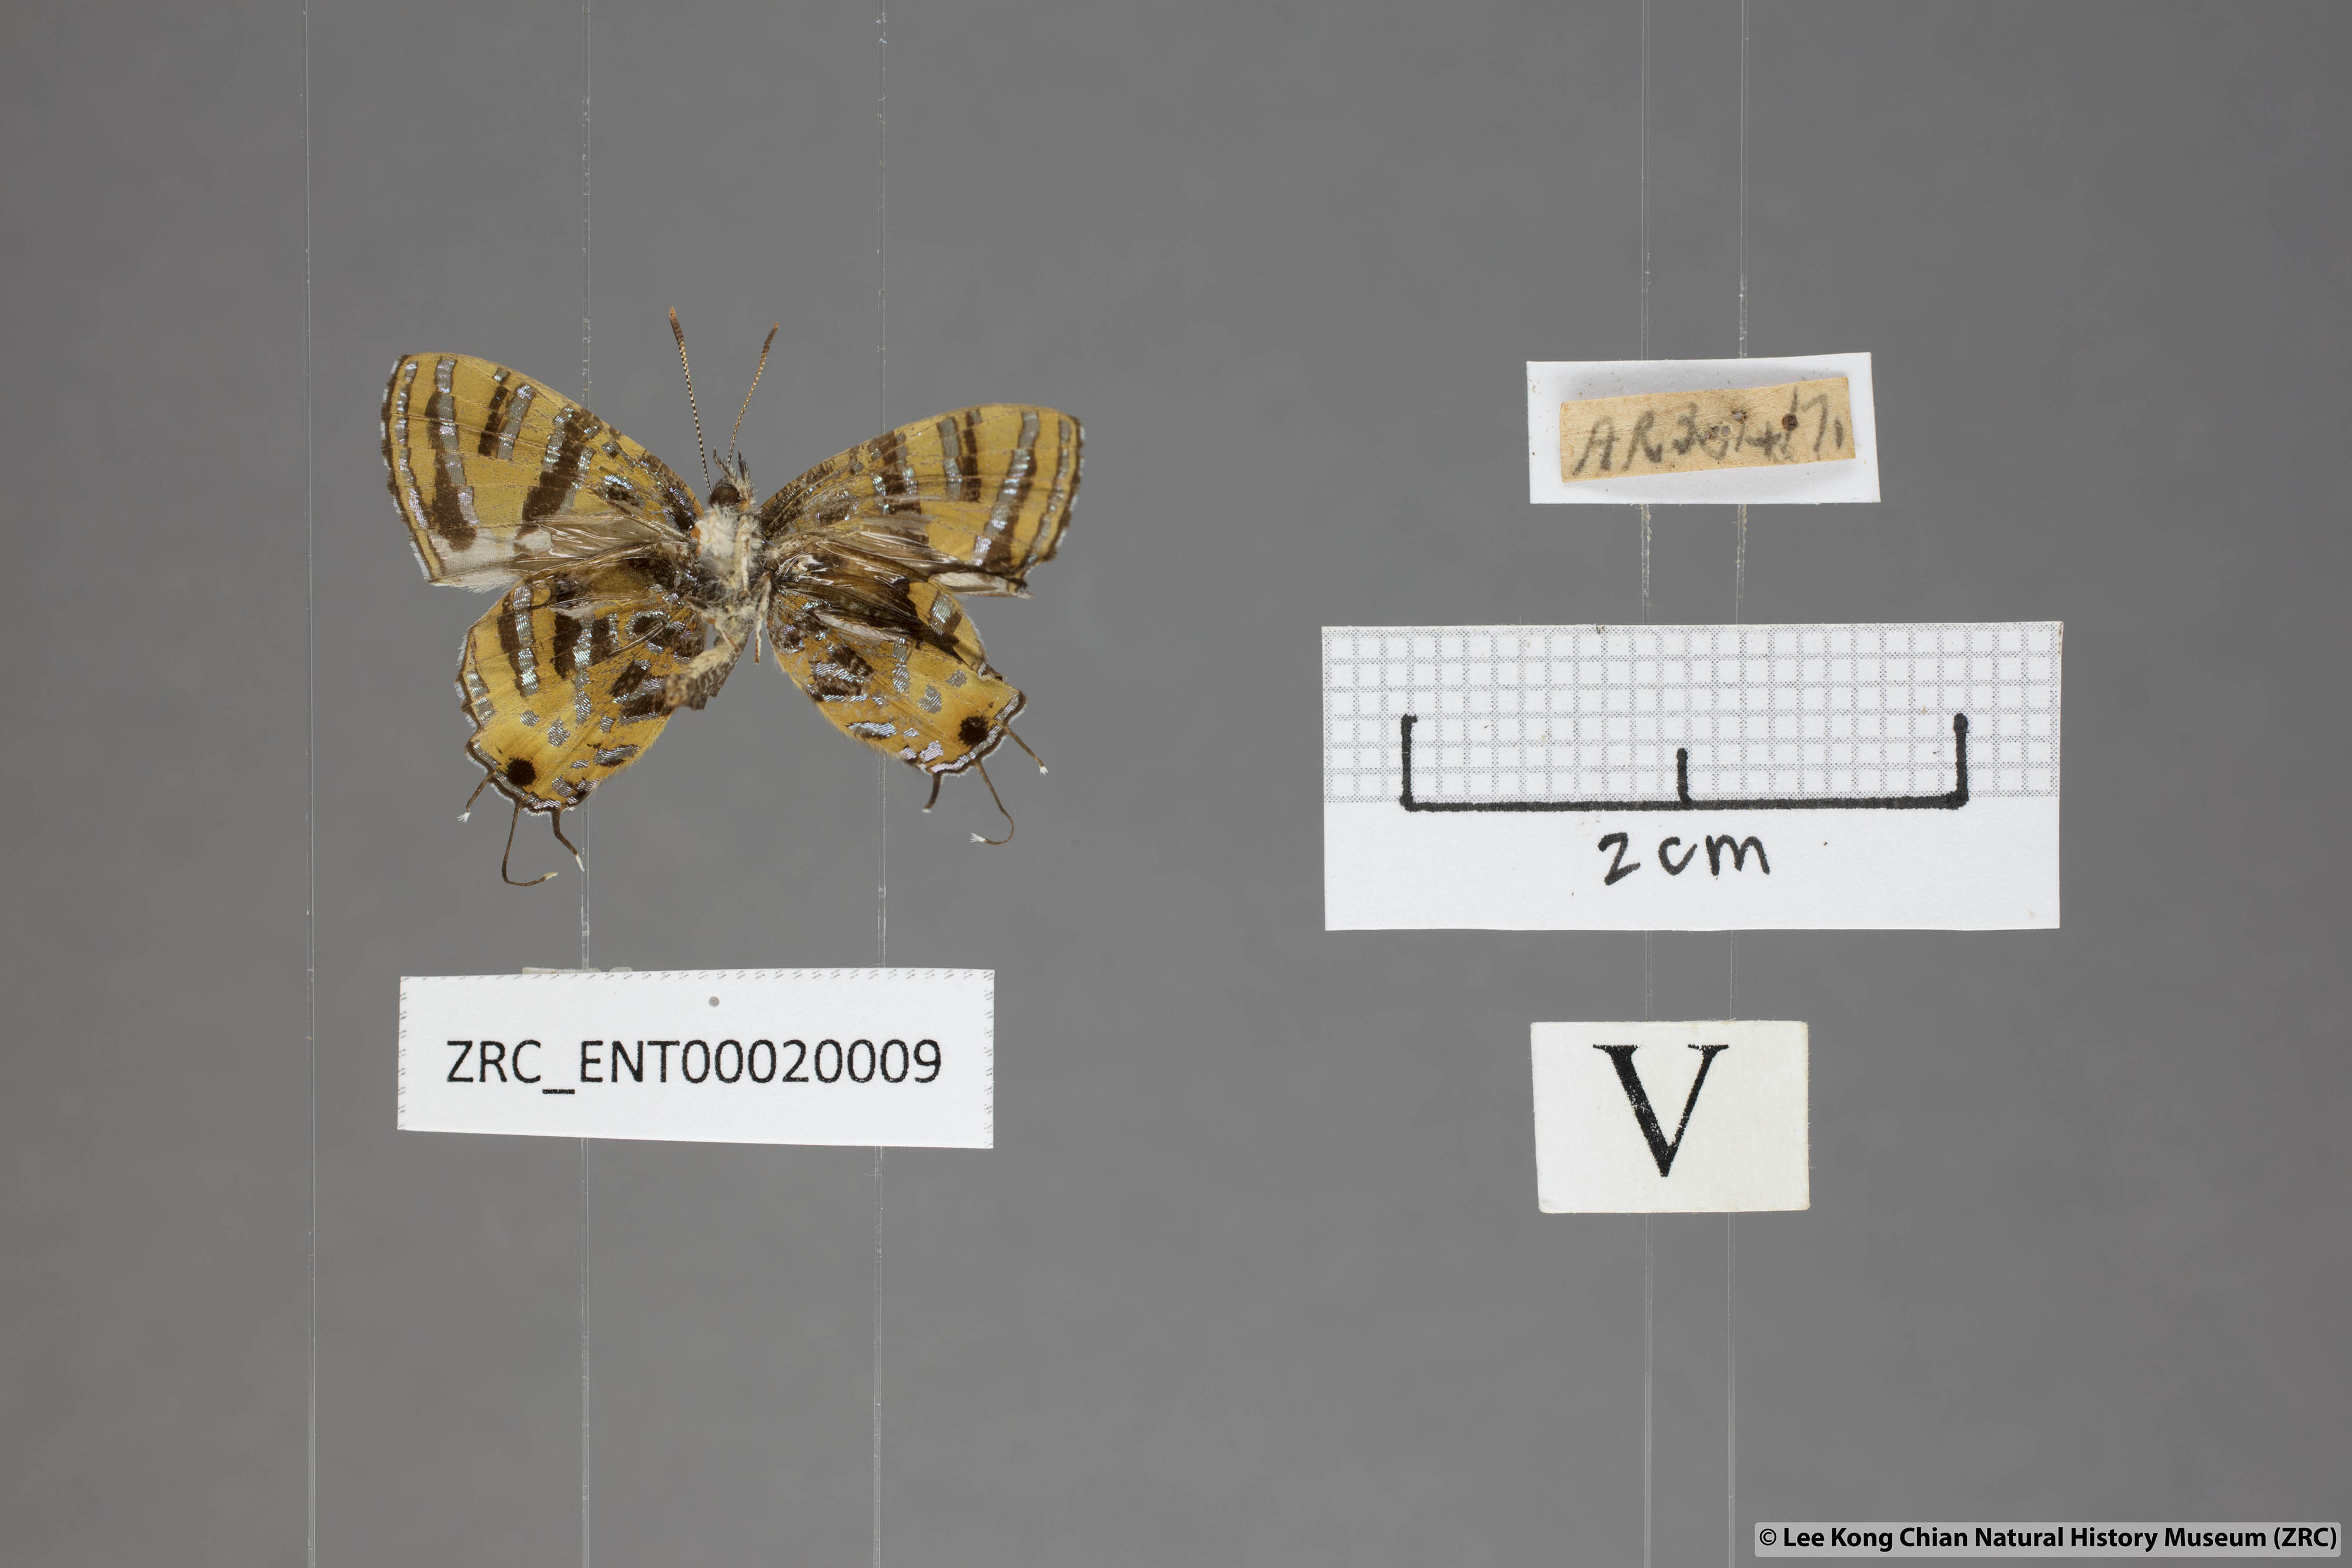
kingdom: Animalia
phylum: Arthropoda
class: Insecta
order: Lepidoptera
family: Lycaenidae
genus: Catapaecilma
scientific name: Catapaecilma subochrea
